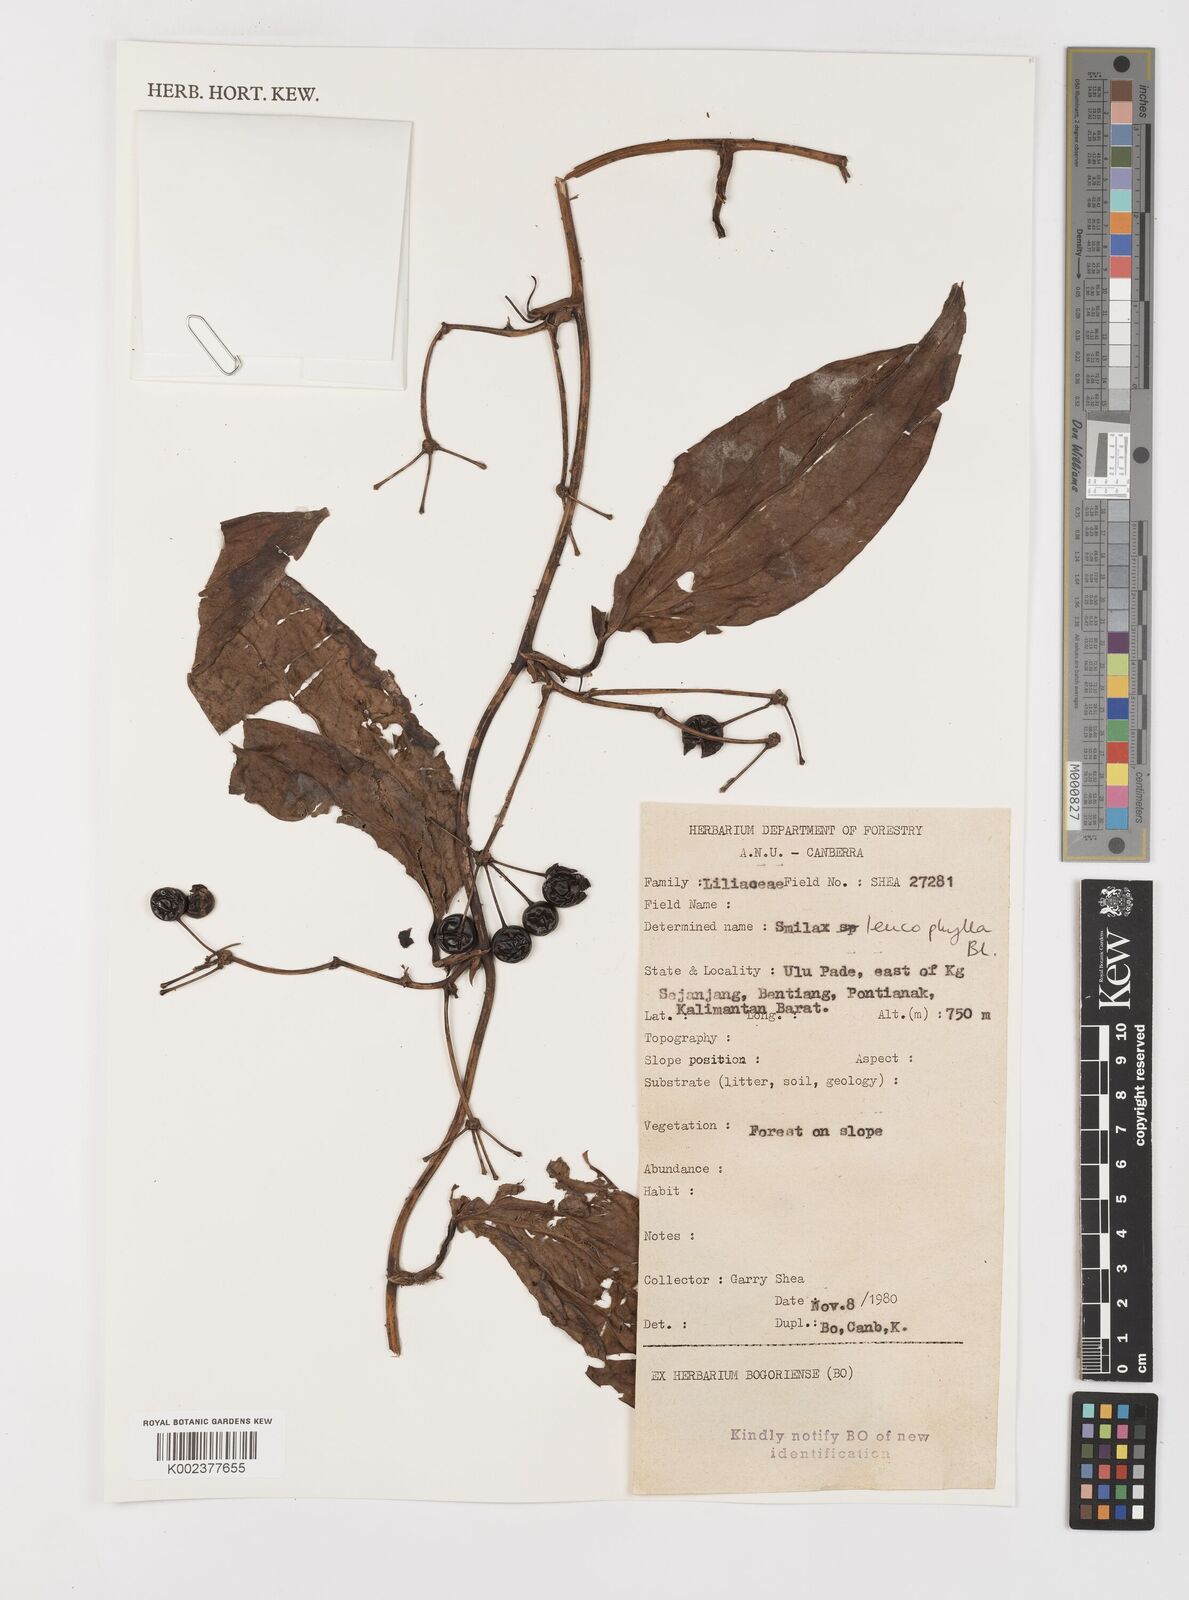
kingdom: Plantae
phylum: Tracheophyta
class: Liliopsida
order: Liliales
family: Smilacaceae
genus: Smilax
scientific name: Smilax leucophylla
